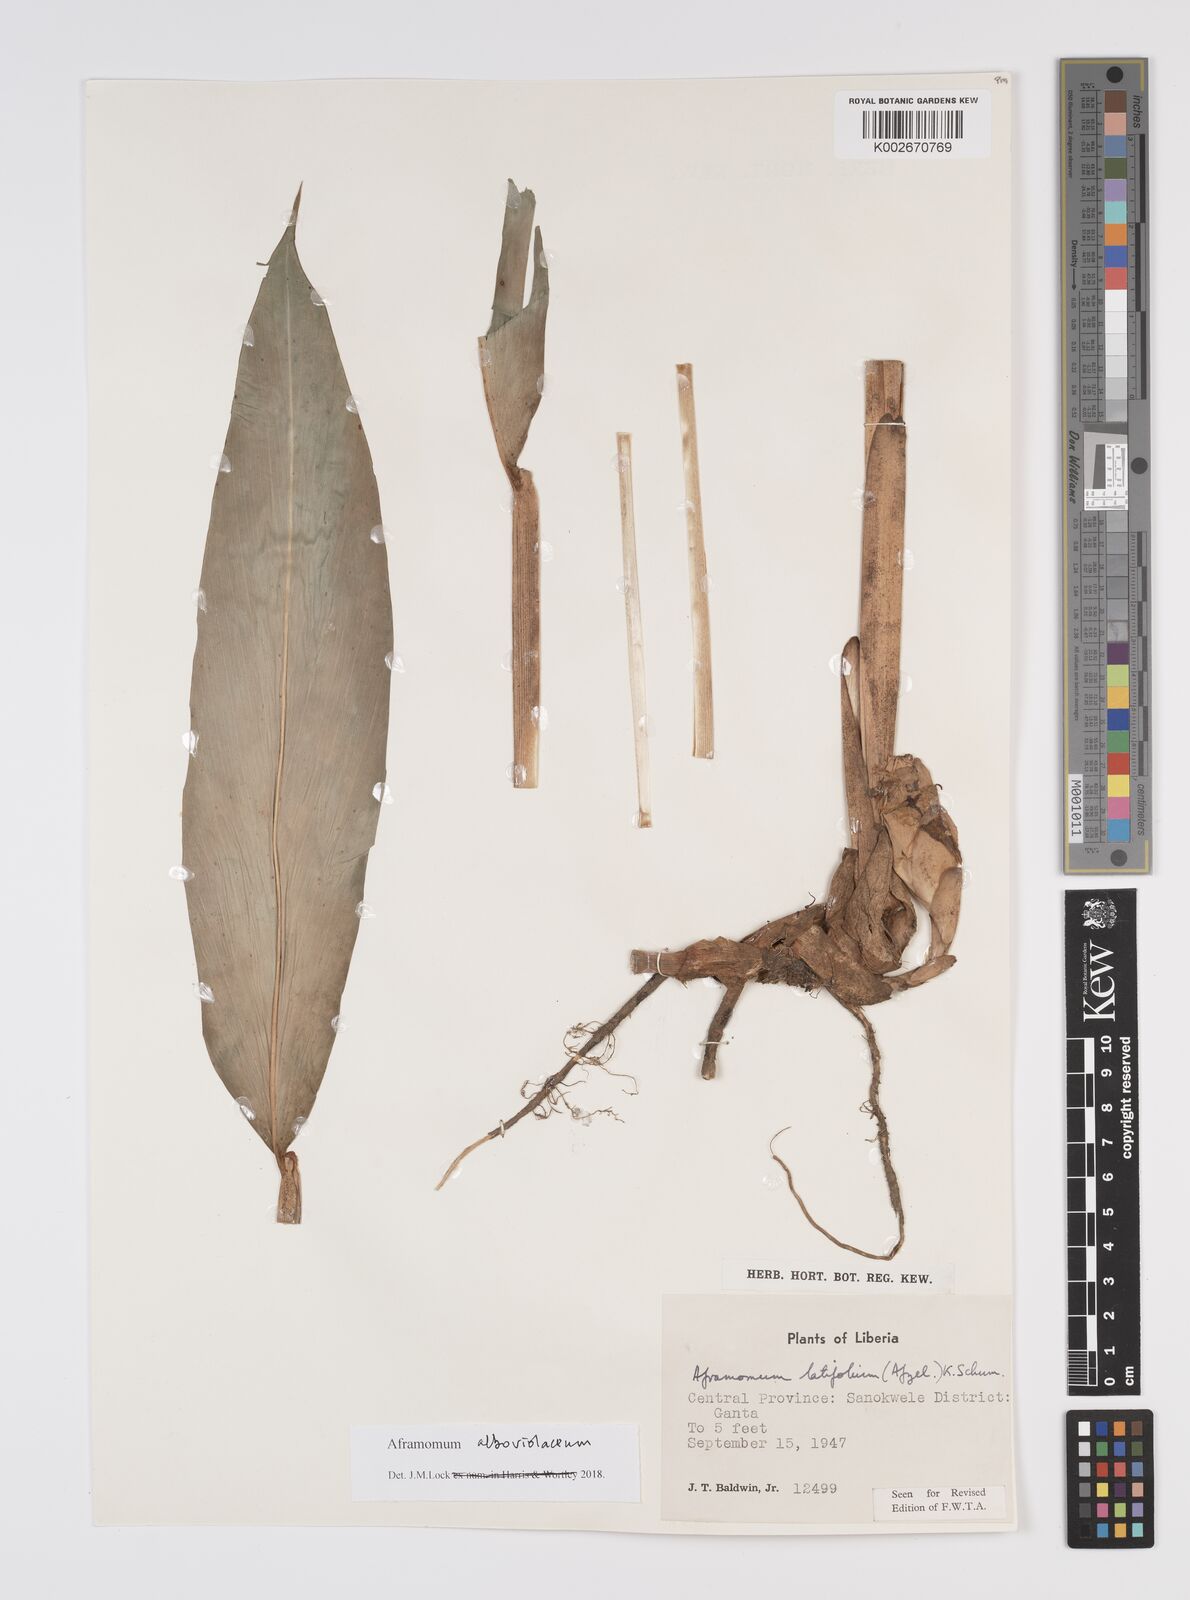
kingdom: Plantae
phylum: Tracheophyta
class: Liliopsida
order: Zingiberales
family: Zingiberaceae
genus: Aframomum
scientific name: Aframomum alboviolaceum
